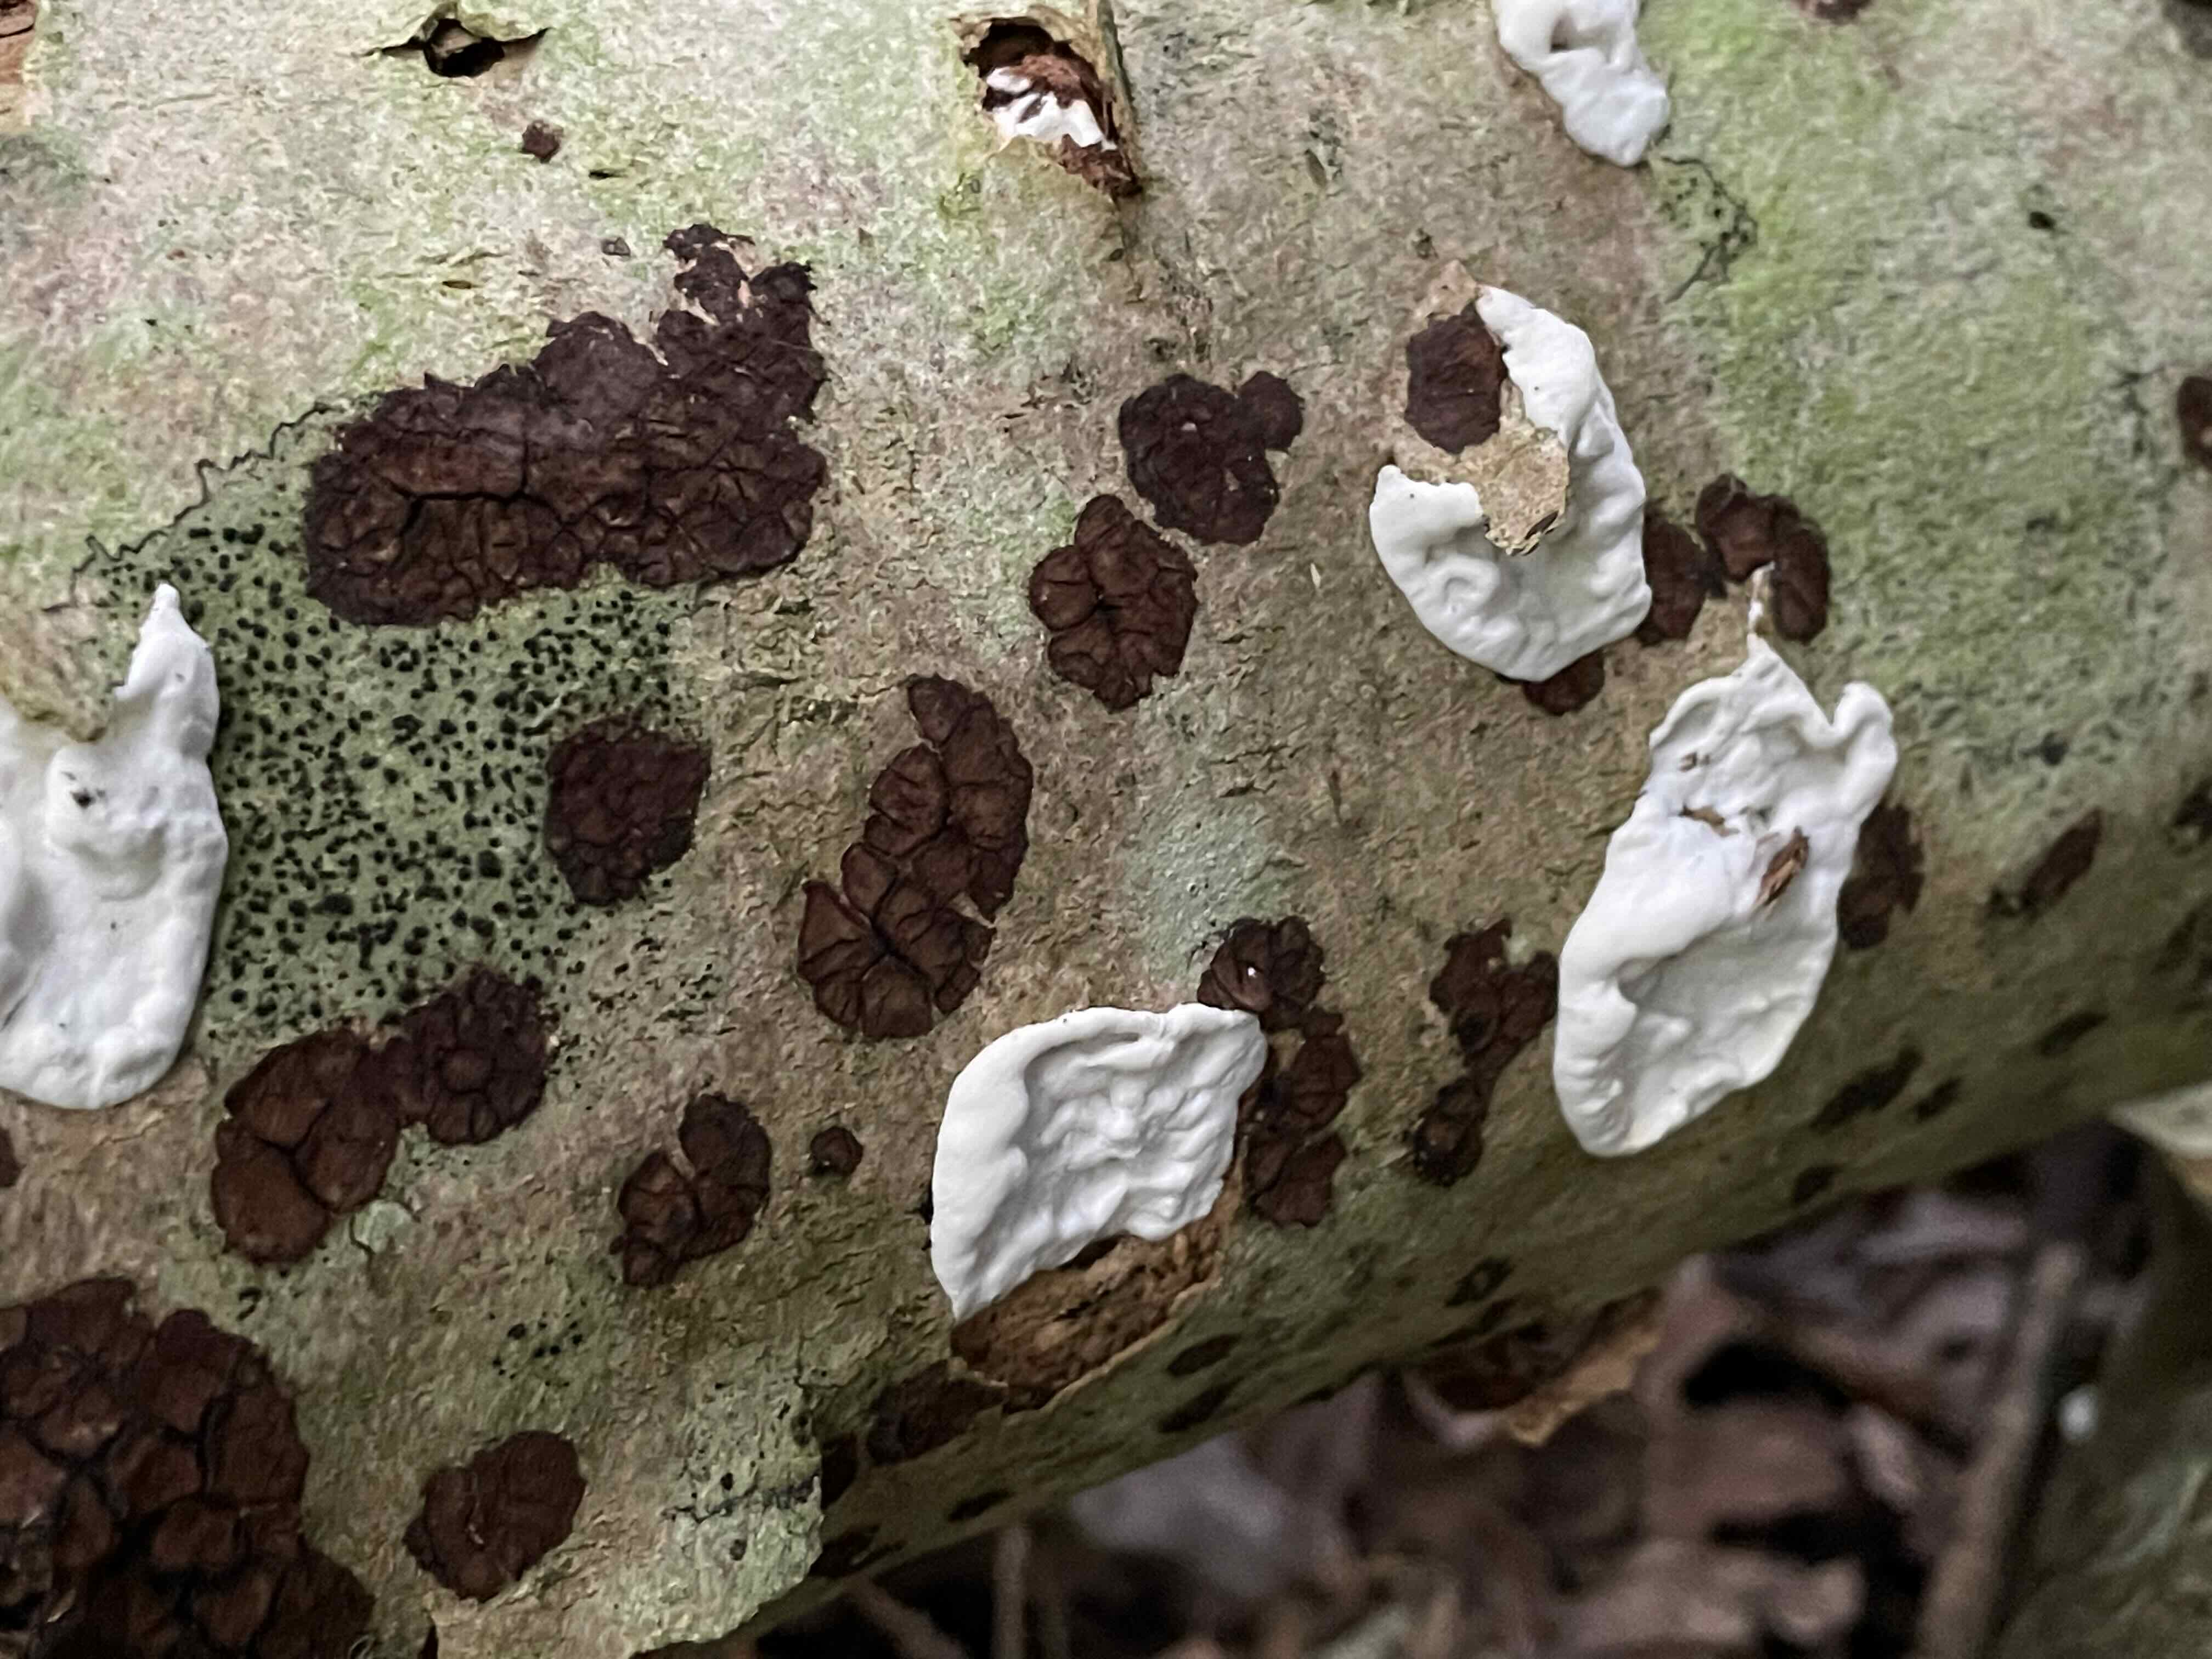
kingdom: Fungi
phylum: Basidiomycota
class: Agaricomycetes
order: Russulales
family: Peniophoraceae
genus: Peniophora
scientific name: Peniophora limitata
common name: mørkrandet voksskind
